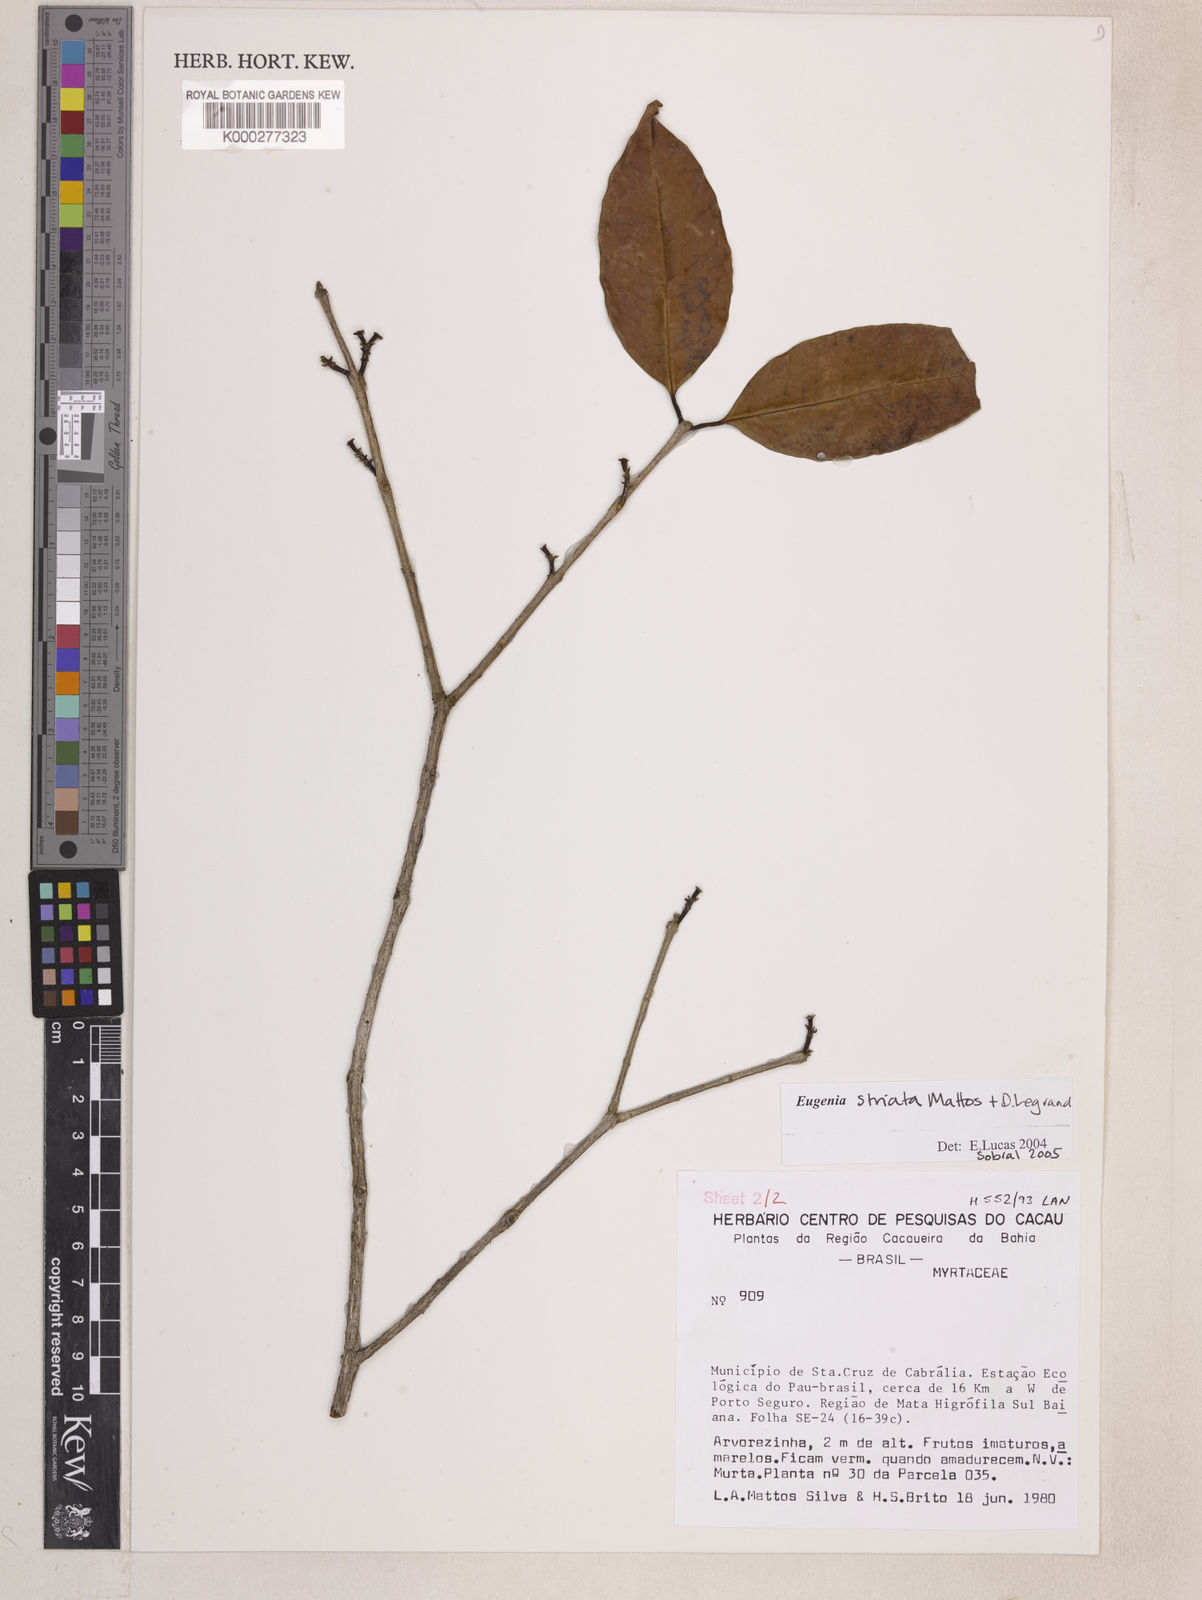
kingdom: Plantae
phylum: Tracheophyta
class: Magnoliopsida
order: Myrtales
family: Myrtaceae
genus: Eugenia
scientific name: Eugenia oblongata
